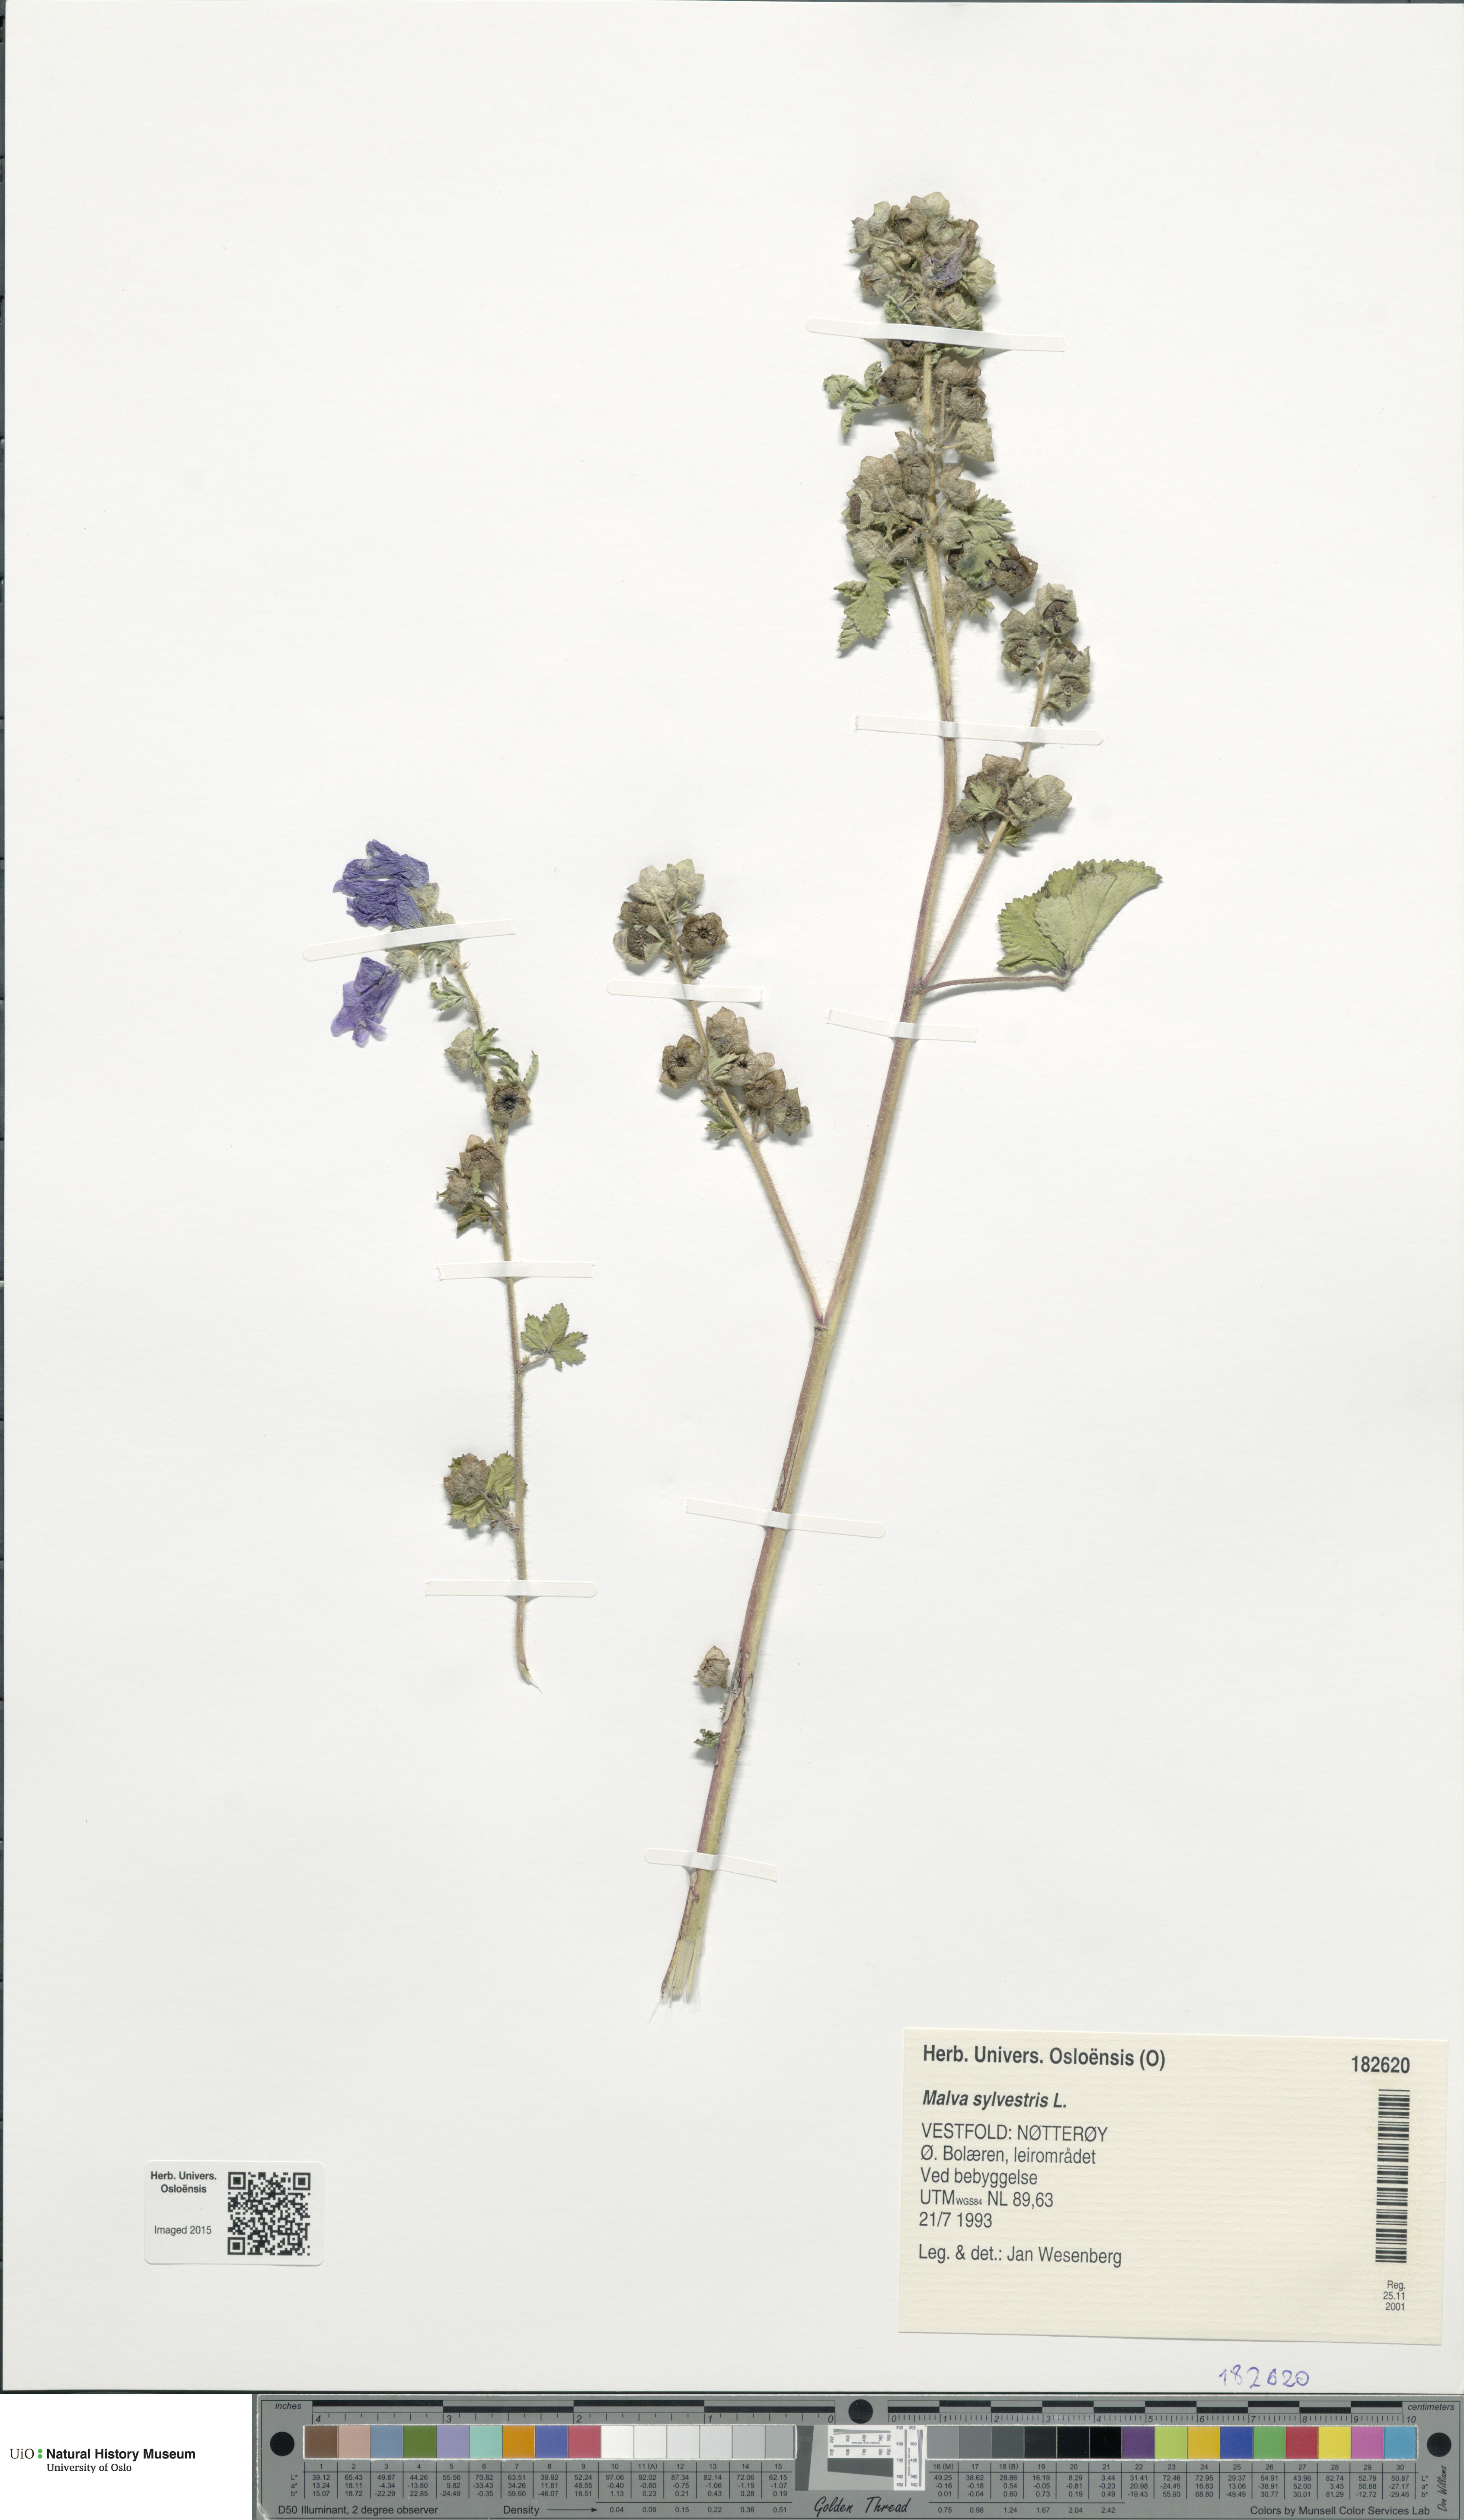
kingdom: Plantae
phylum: Tracheophyta
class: Magnoliopsida
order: Malvales
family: Malvaceae
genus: Malva
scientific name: Malva sylvestris
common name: Common mallow
